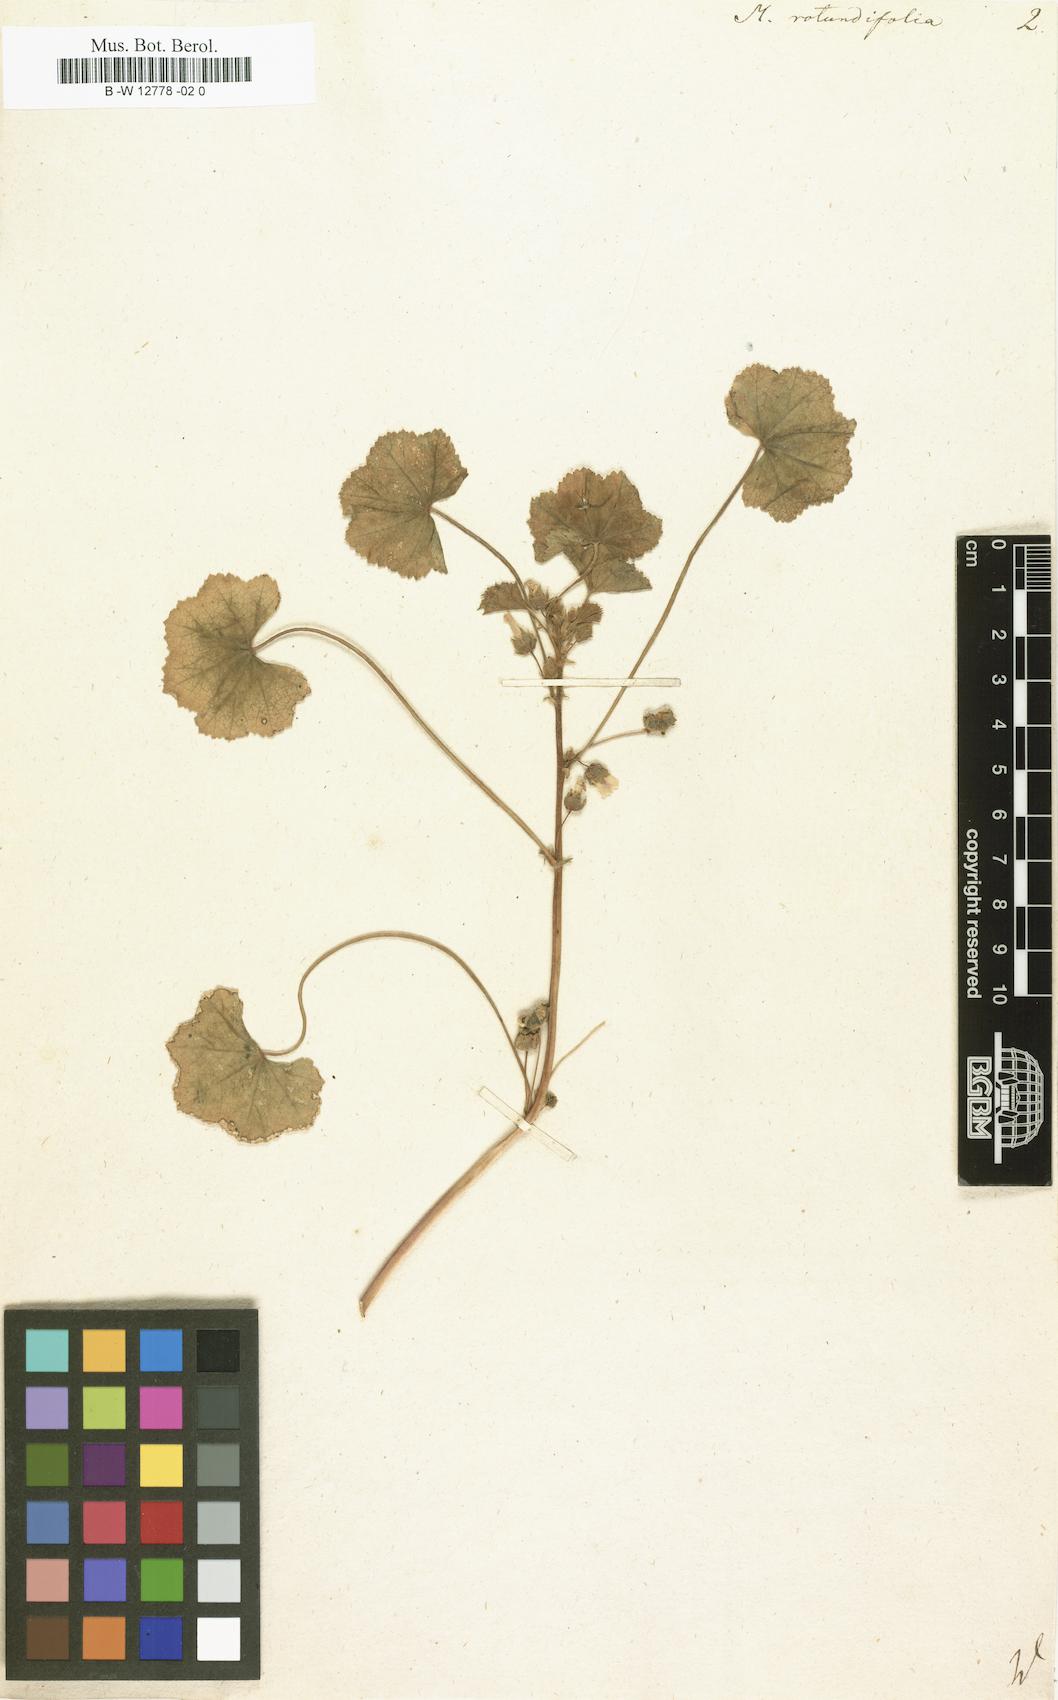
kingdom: Plantae
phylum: Tracheophyta
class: Magnoliopsida
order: Malvales
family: Malvaceae
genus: Malva
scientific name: Malva
